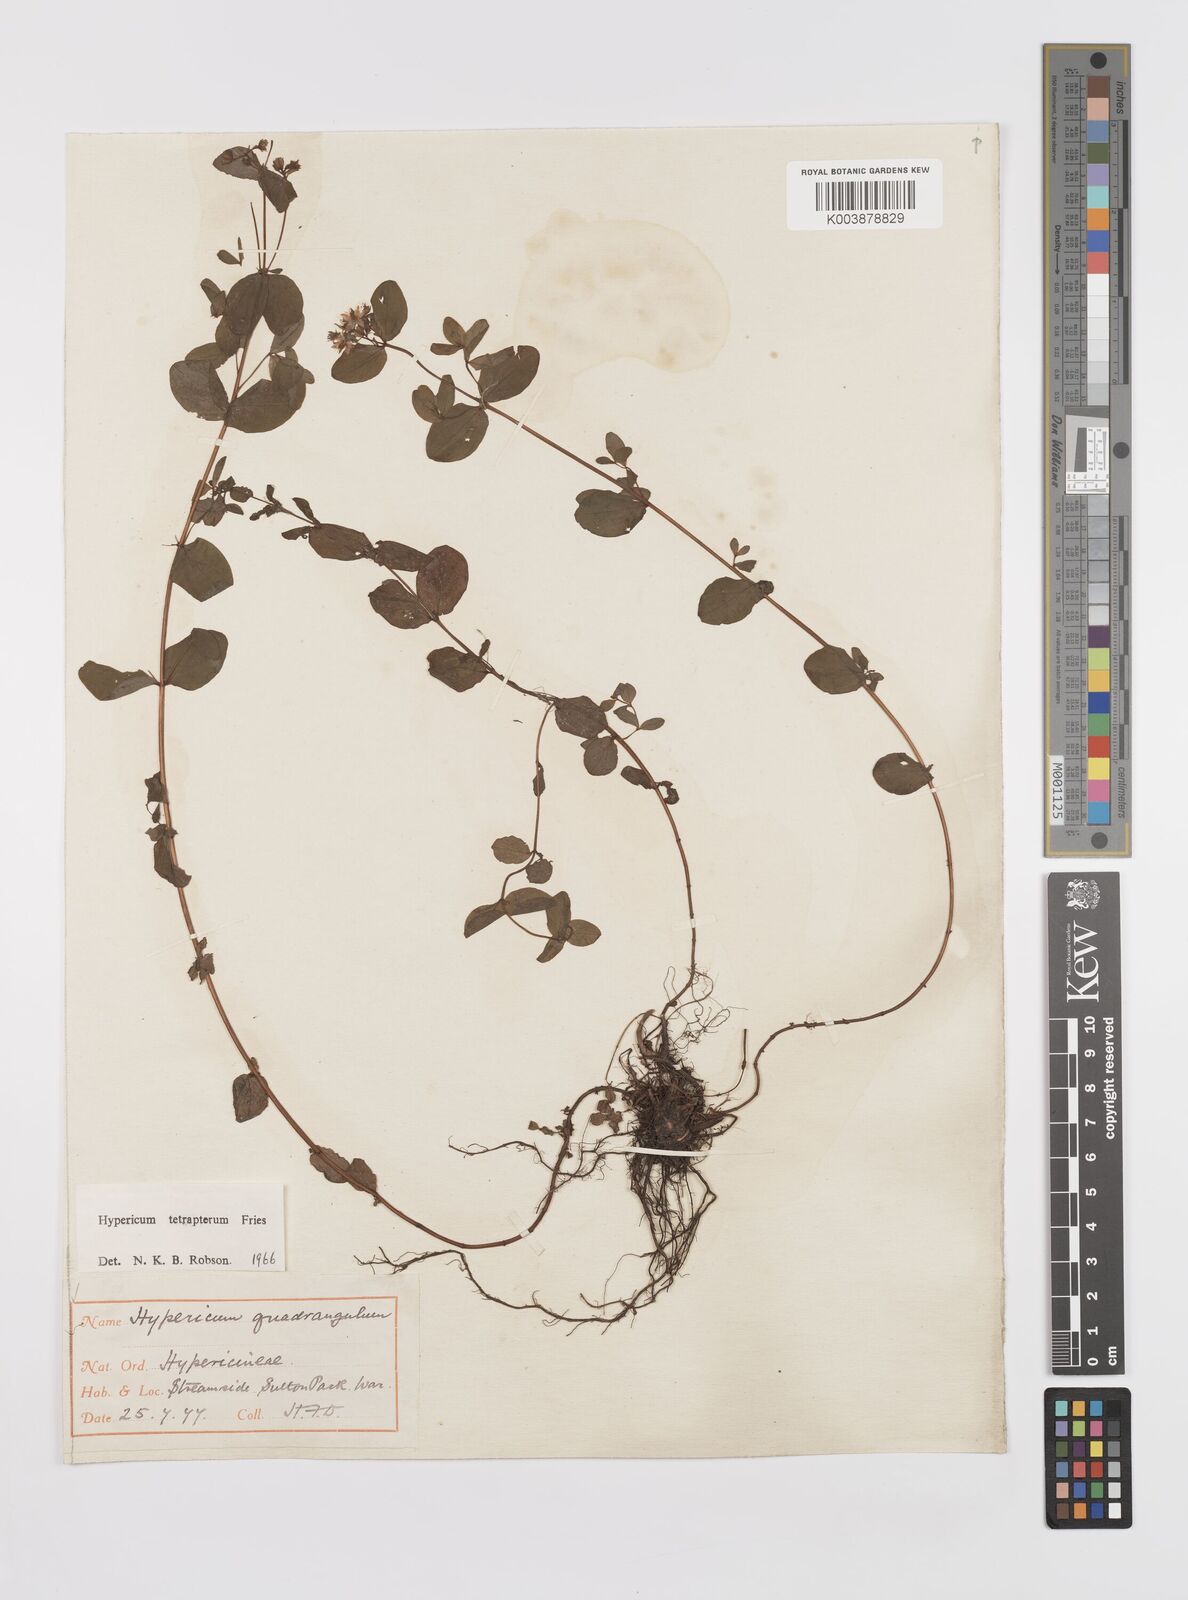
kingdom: Plantae
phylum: Tracheophyta
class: Magnoliopsida
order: Malpighiales
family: Hypericaceae
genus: Hypericum
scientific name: Hypericum tetrapterum
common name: Square-stalked st. john's-wort
